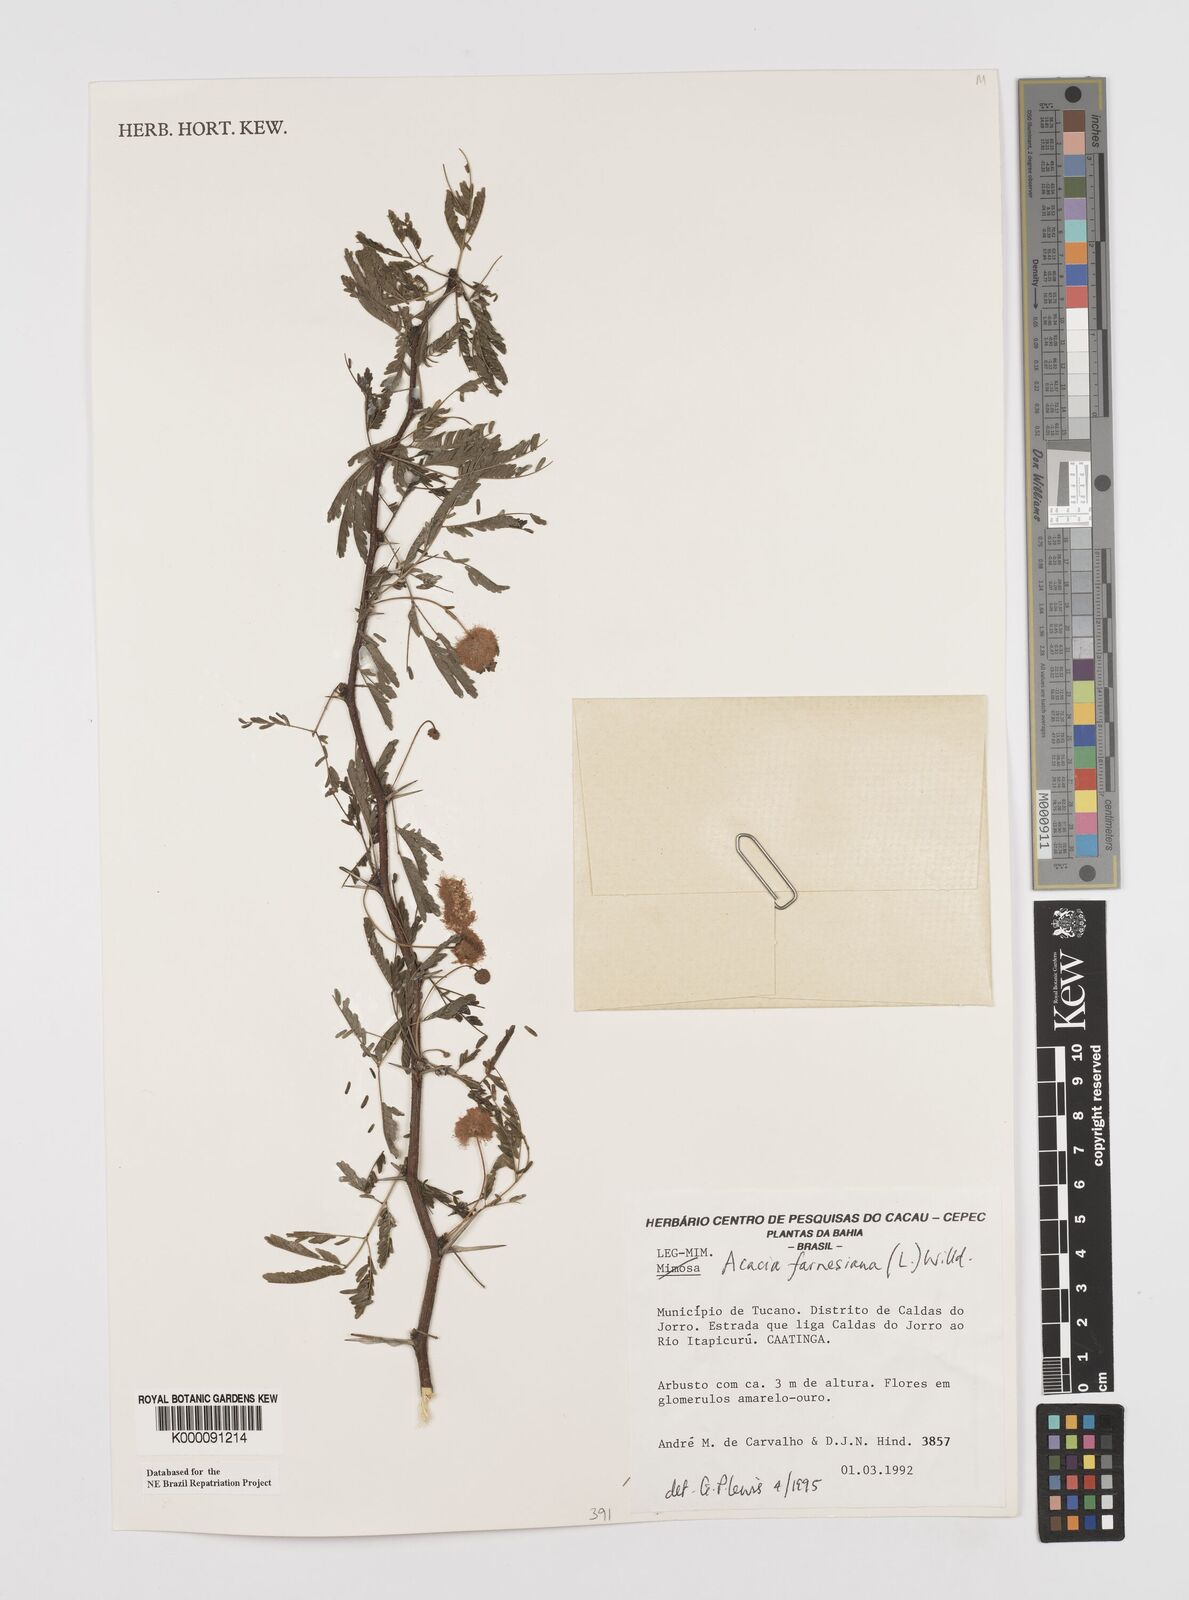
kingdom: Plantae
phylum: Tracheophyta
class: Magnoliopsida
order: Fabales
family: Fabaceae
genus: Vachellia
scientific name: Vachellia farnesiana
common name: Sweet acacia
